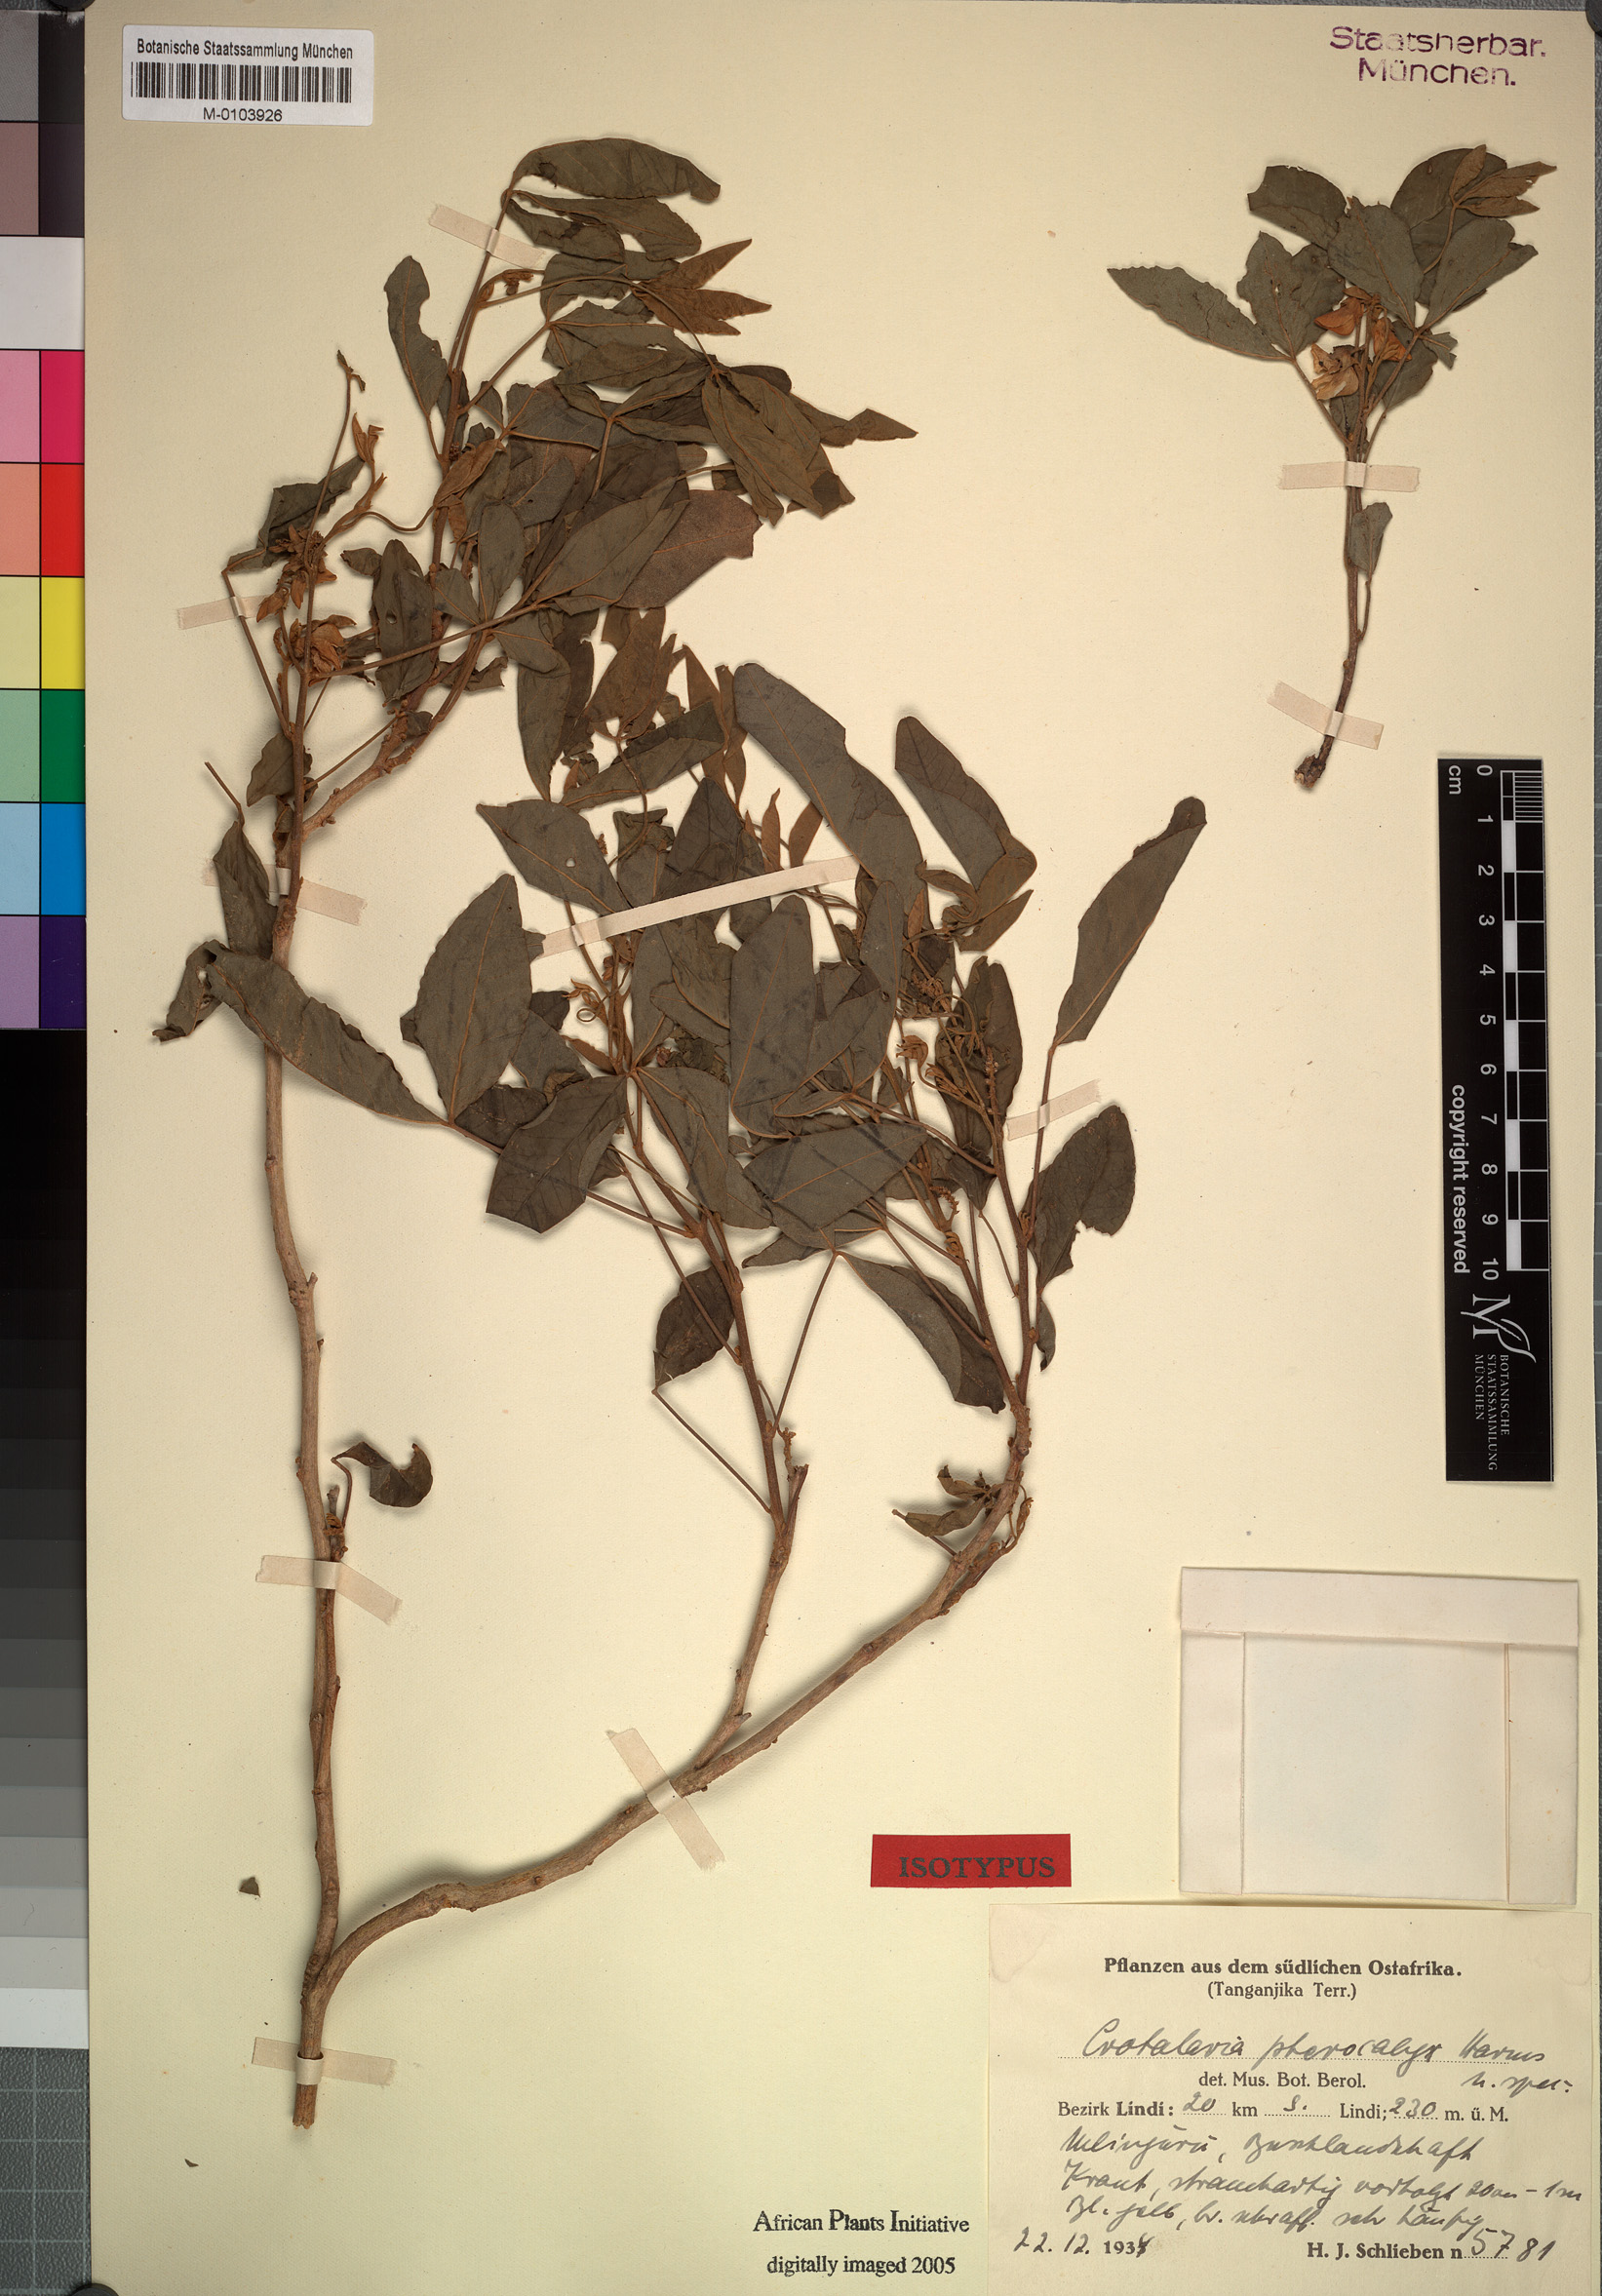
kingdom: Plantae
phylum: Tracheophyta
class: Magnoliopsida
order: Fabales
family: Fabaceae
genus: Crotalaria
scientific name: Crotalaria pterocalyx
